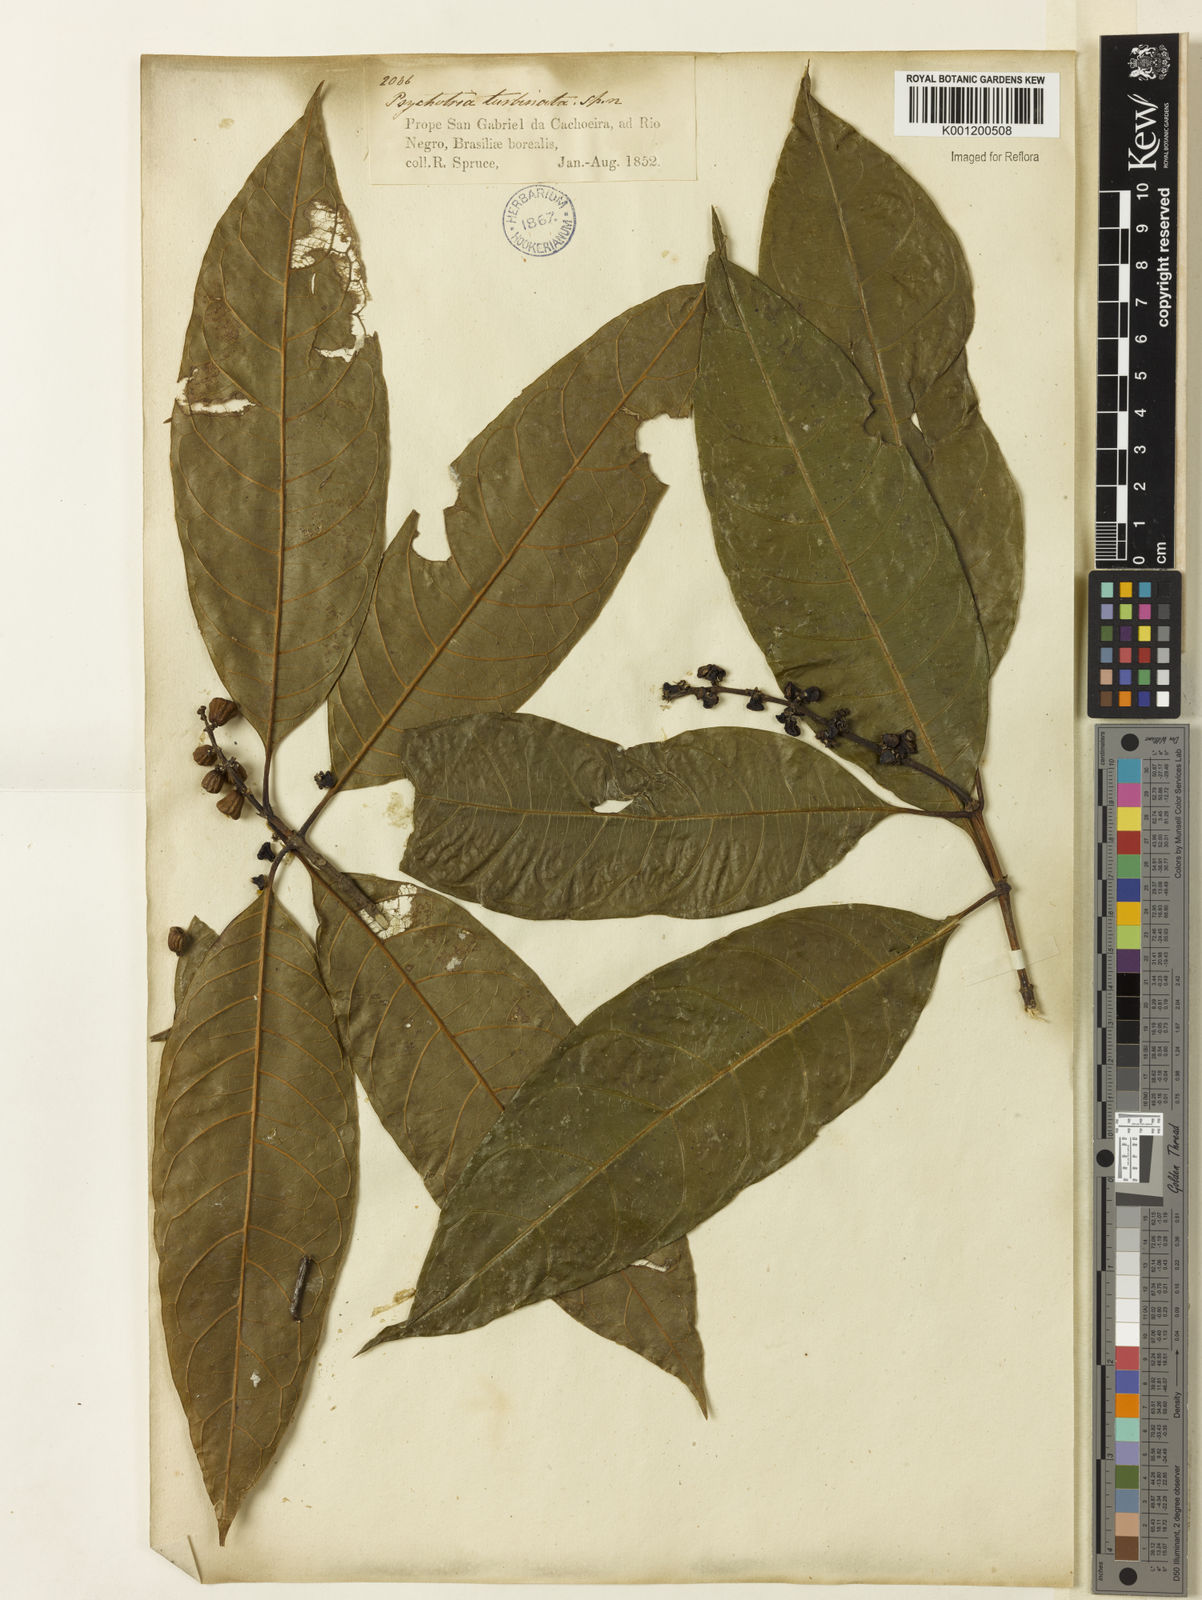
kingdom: Plantae
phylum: Tracheophyta
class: Magnoliopsida
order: Gentianales
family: Rubiaceae
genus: Psychotria
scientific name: Psychotria turbinata
